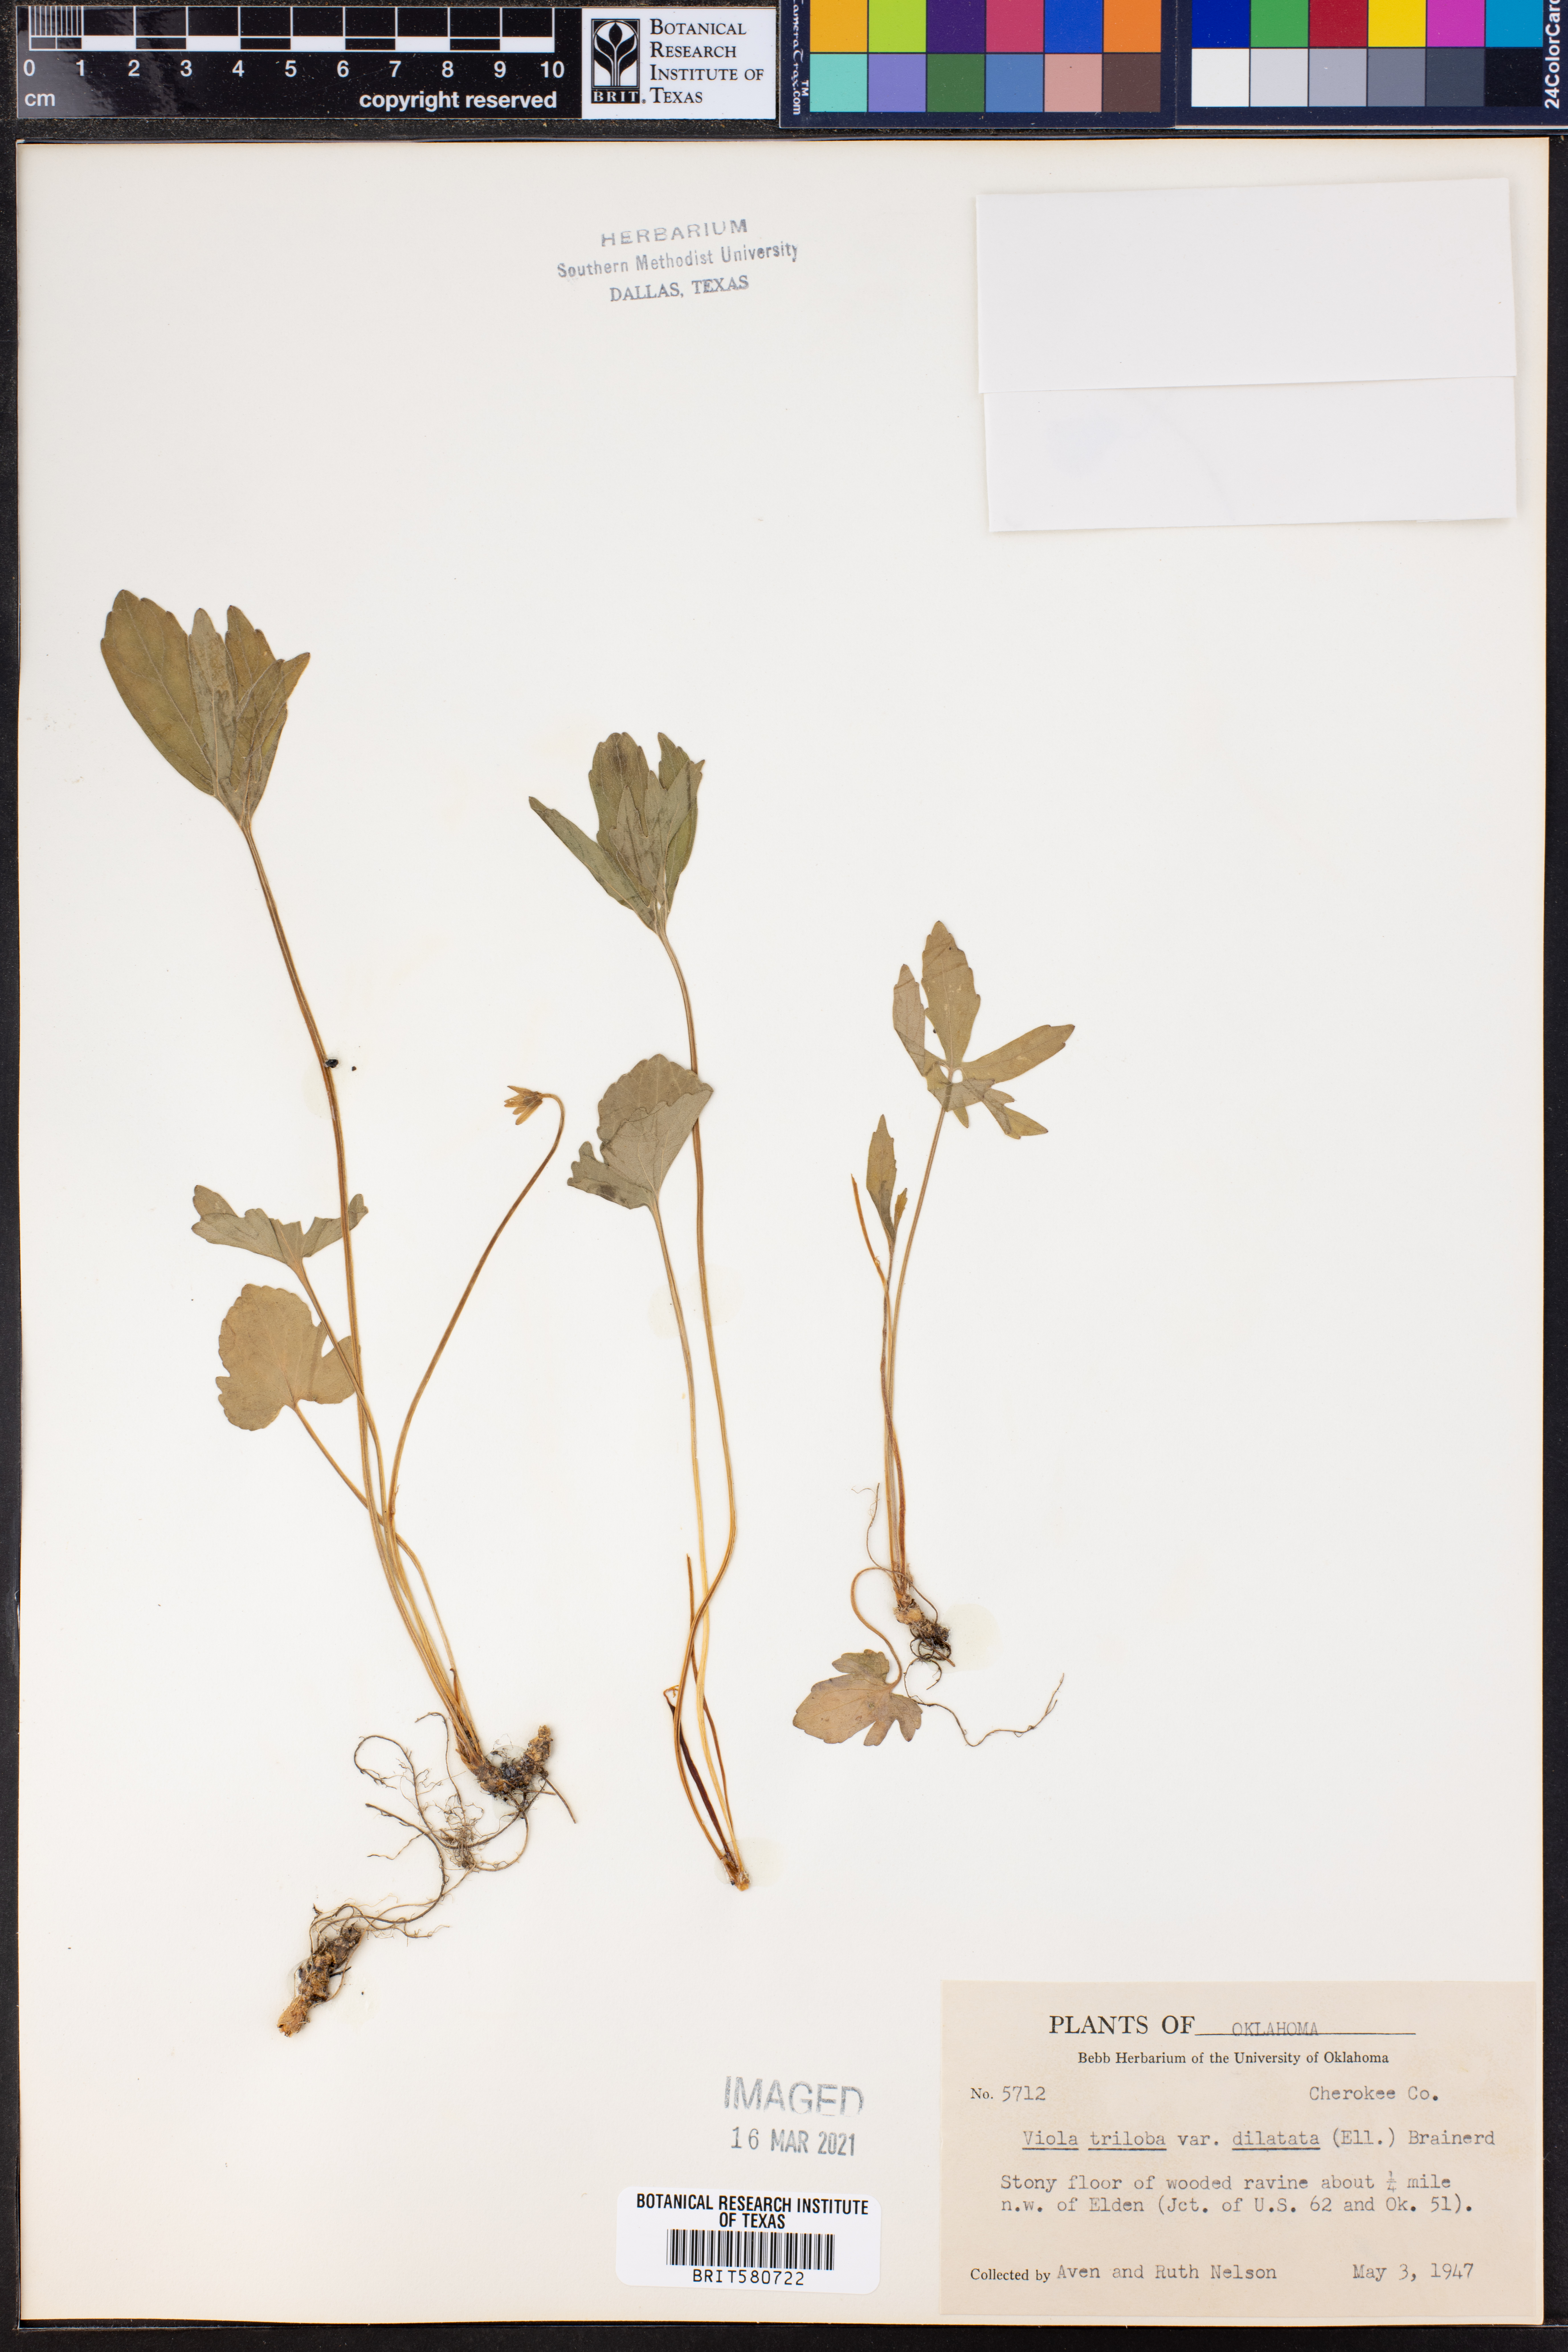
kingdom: Plantae
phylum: Tracheophyta
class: Magnoliopsida
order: Malpighiales
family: Violaceae
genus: Viola
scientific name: Viola palmata
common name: Early blue violet
